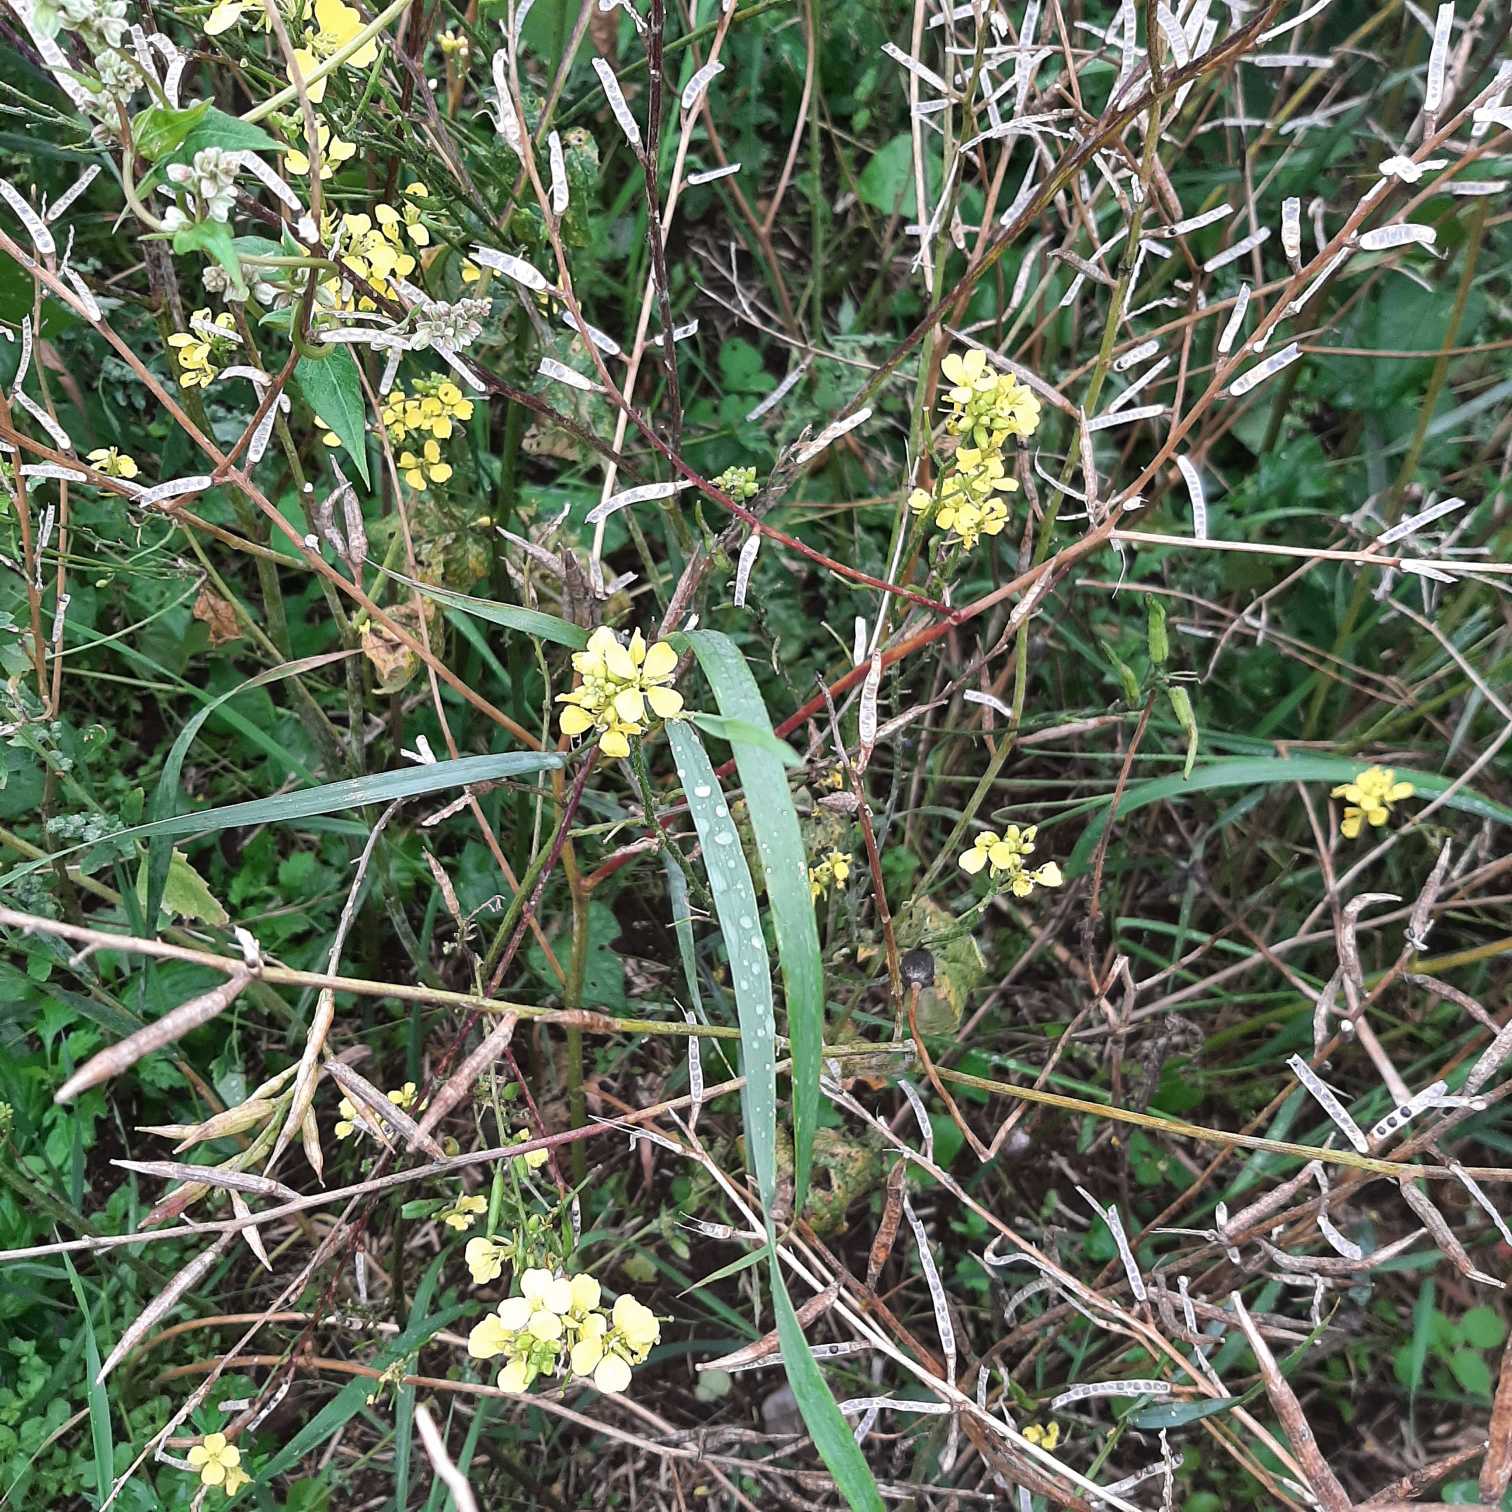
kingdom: Plantae
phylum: Tracheophyta
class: Magnoliopsida
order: Brassicales
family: Brassicaceae
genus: Sinapis
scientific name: Sinapis arvensis
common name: Ager-sennep
